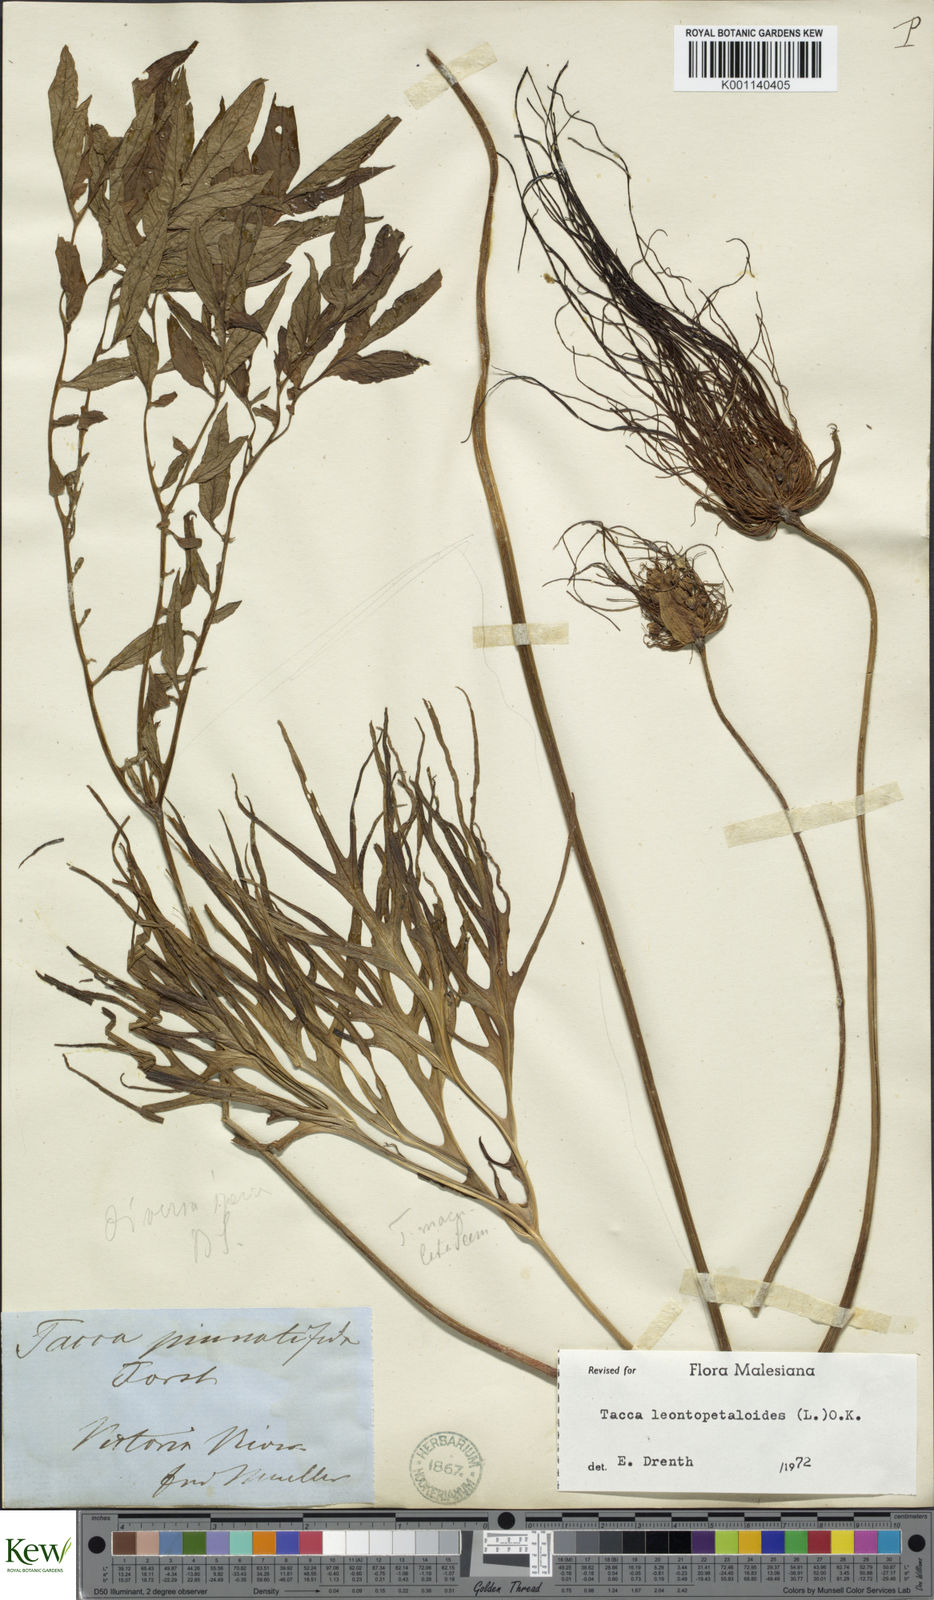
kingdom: Plantae
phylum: Tracheophyta
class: Liliopsida
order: Dioscoreales
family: Dioscoreaceae
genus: Tacca
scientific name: Tacca leontopetaloides
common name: Arrowroot
